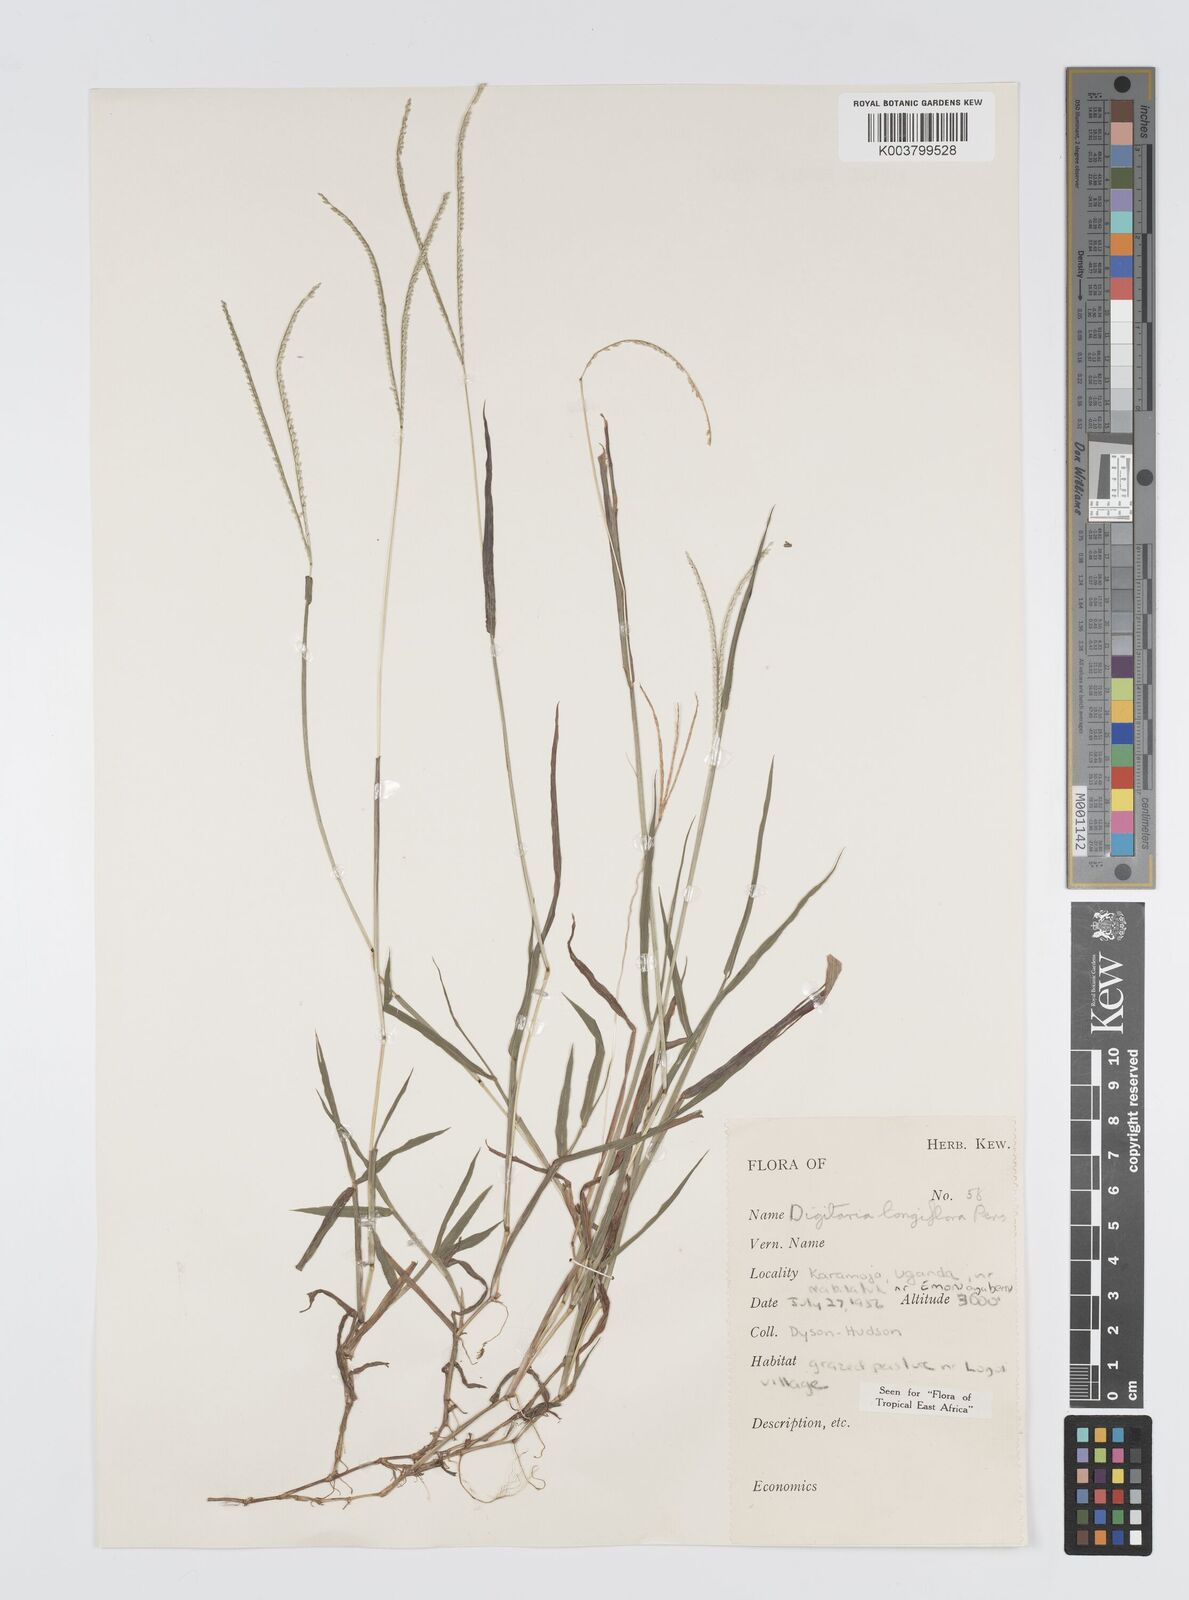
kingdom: Plantae
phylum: Tracheophyta
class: Liliopsida
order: Poales
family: Poaceae
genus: Digitaria
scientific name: Digitaria longiflora
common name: Wire crabgrass
